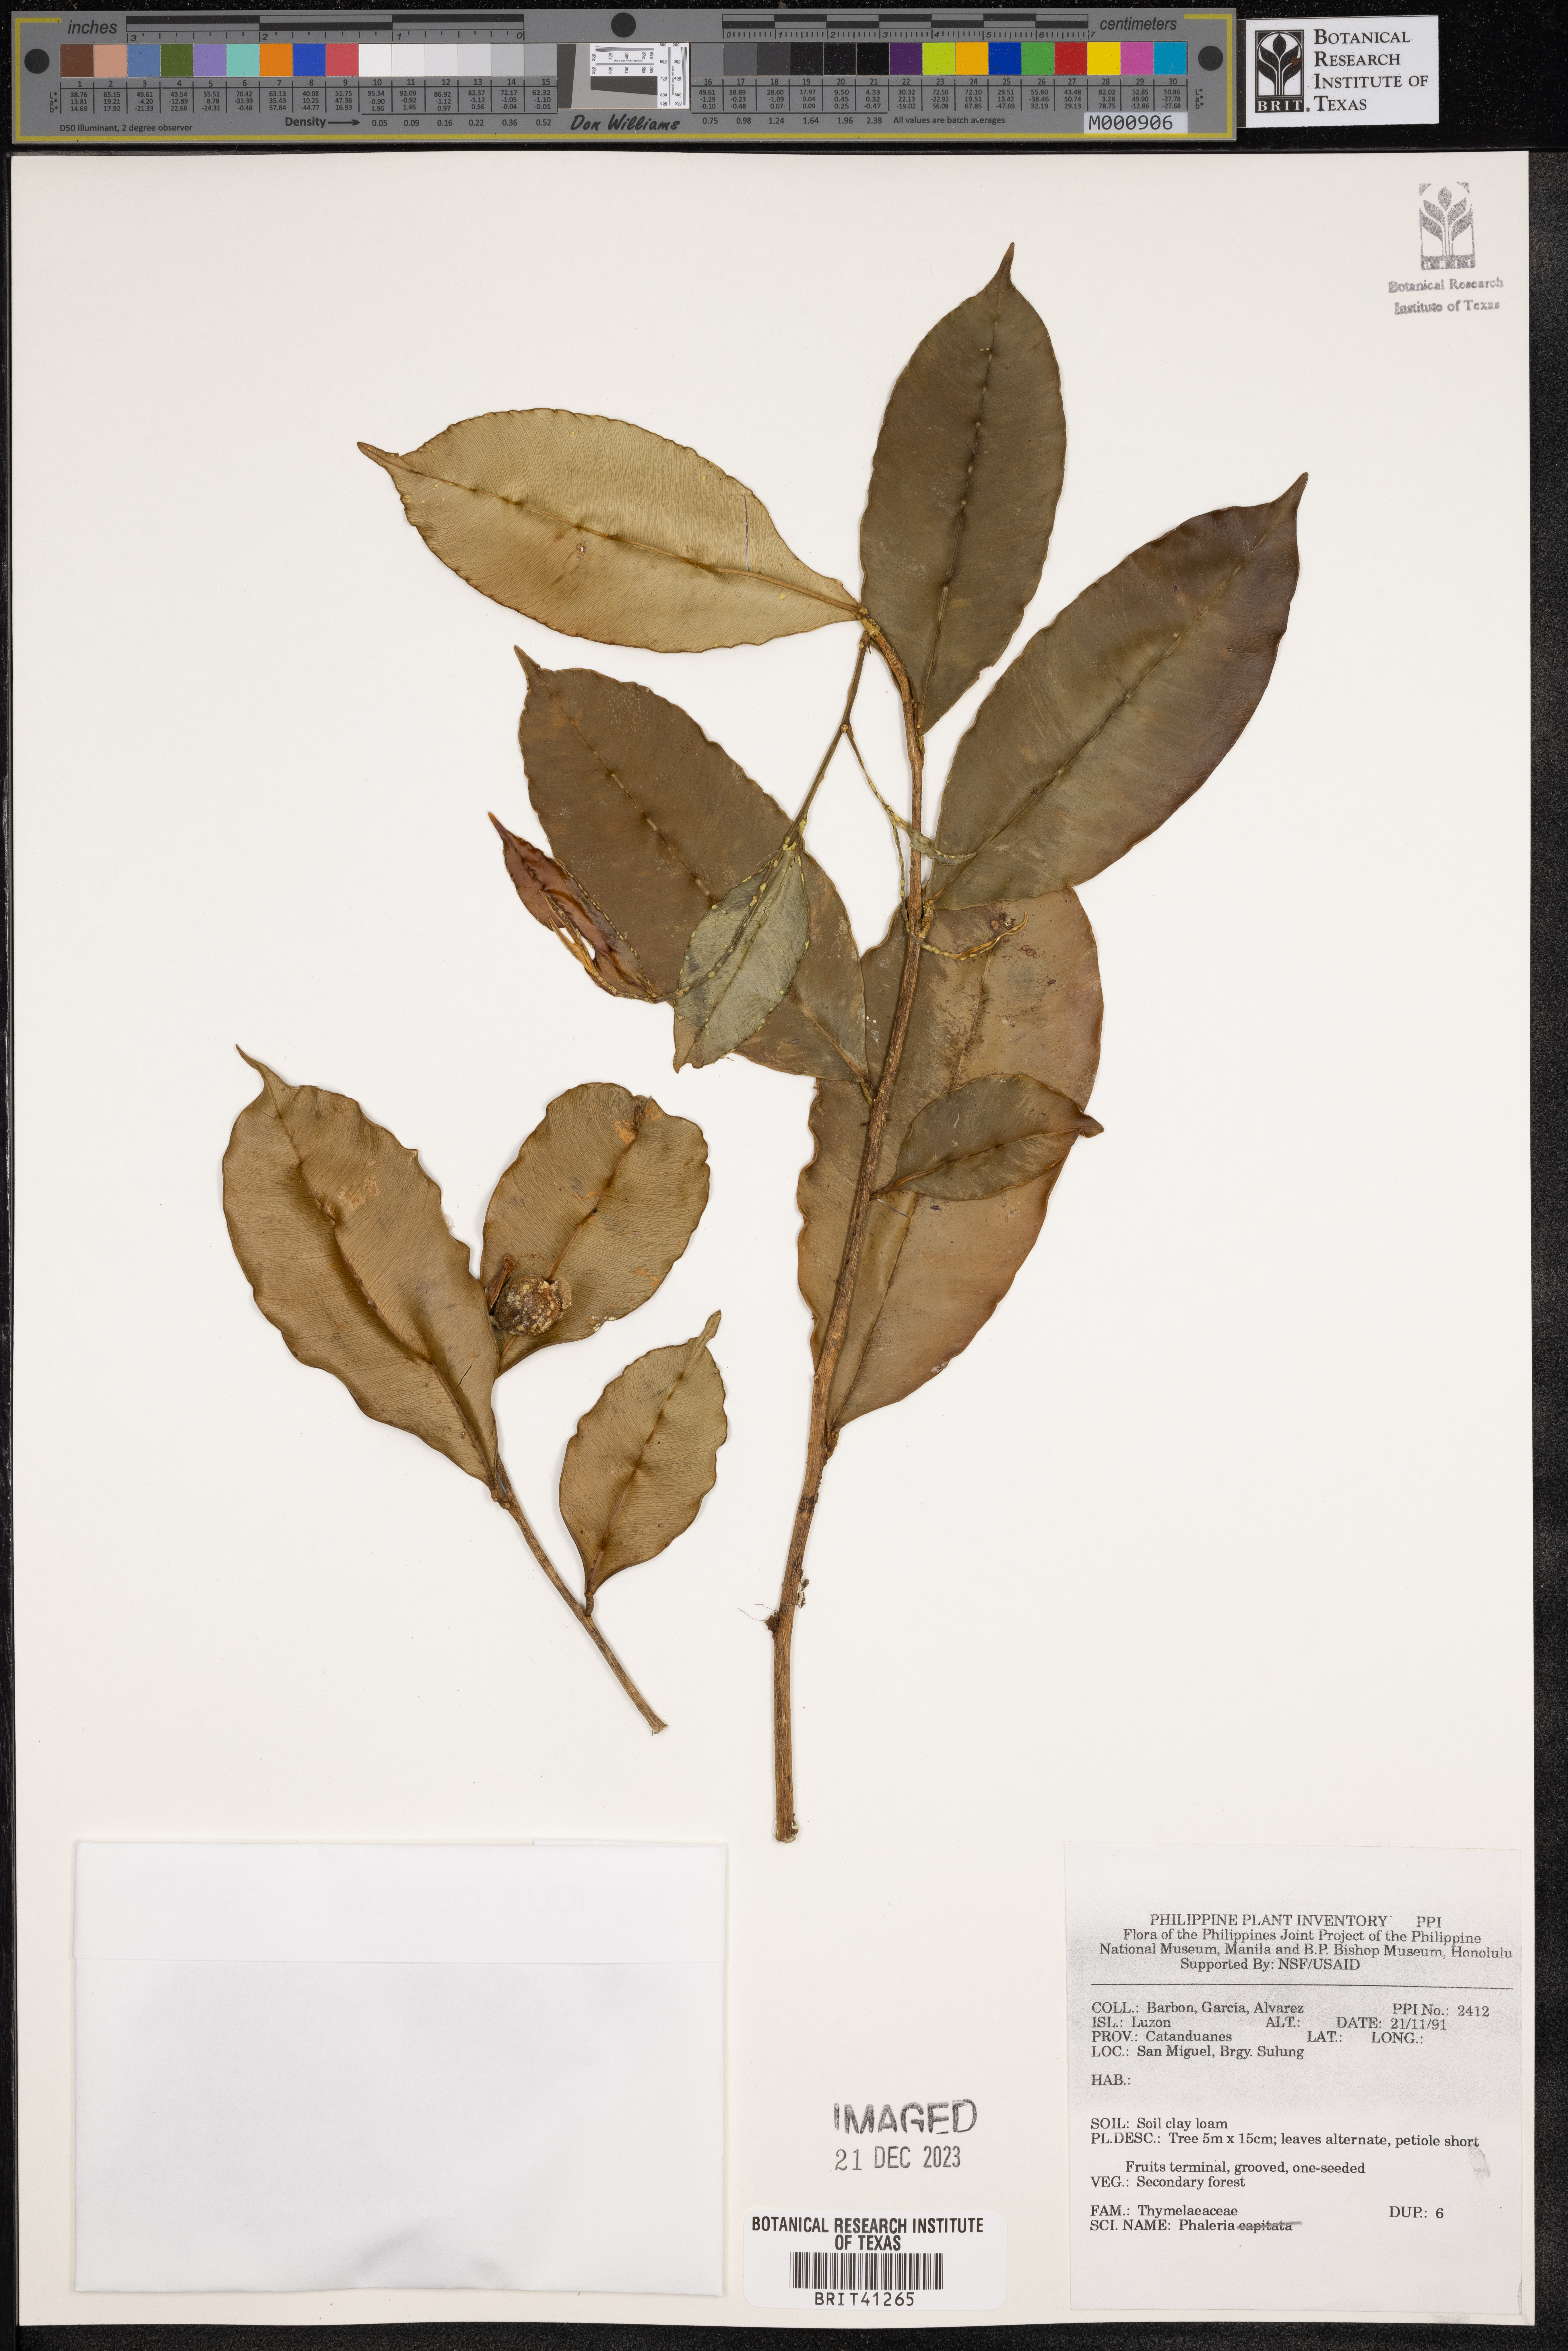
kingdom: Plantae
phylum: Tracheophyta
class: Magnoliopsida
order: Malvales
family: Thymelaeaceae
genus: Phaleria
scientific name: Phaleria
